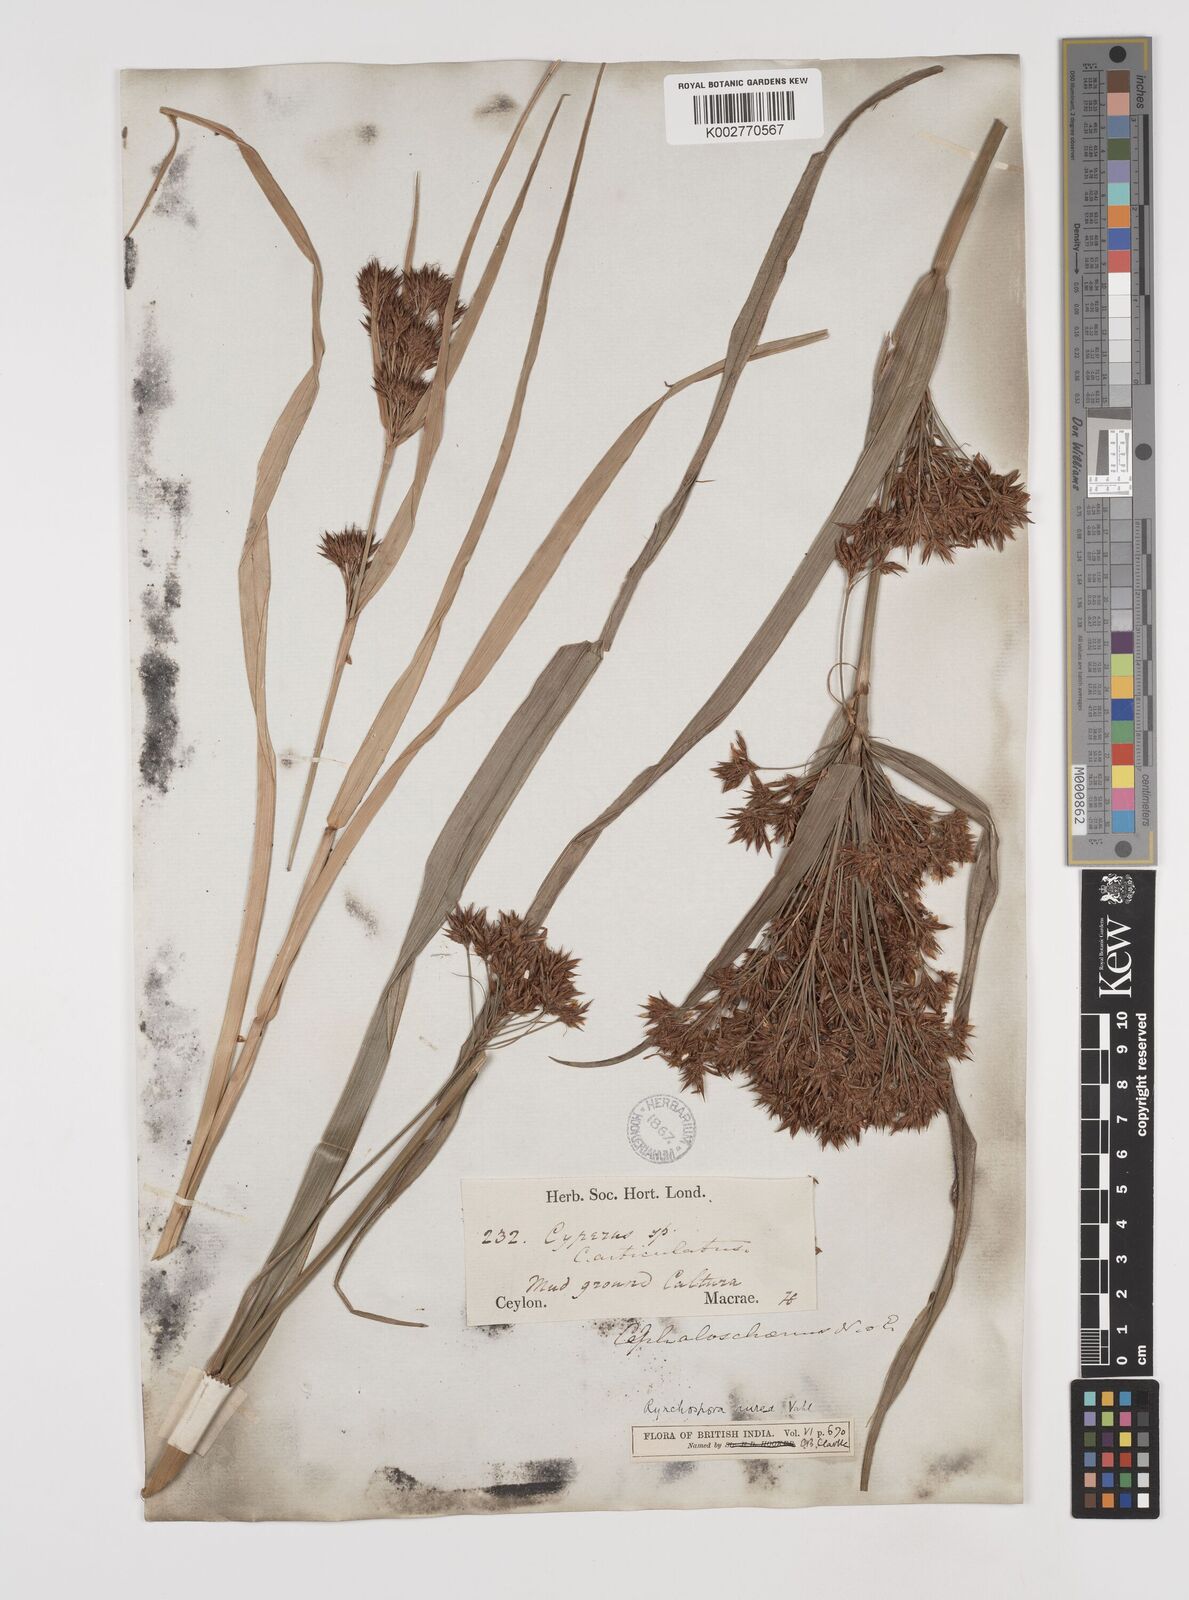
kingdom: Plantae
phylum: Tracheophyta
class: Liliopsida
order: Poales
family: Cyperaceae
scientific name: Cyperaceae
